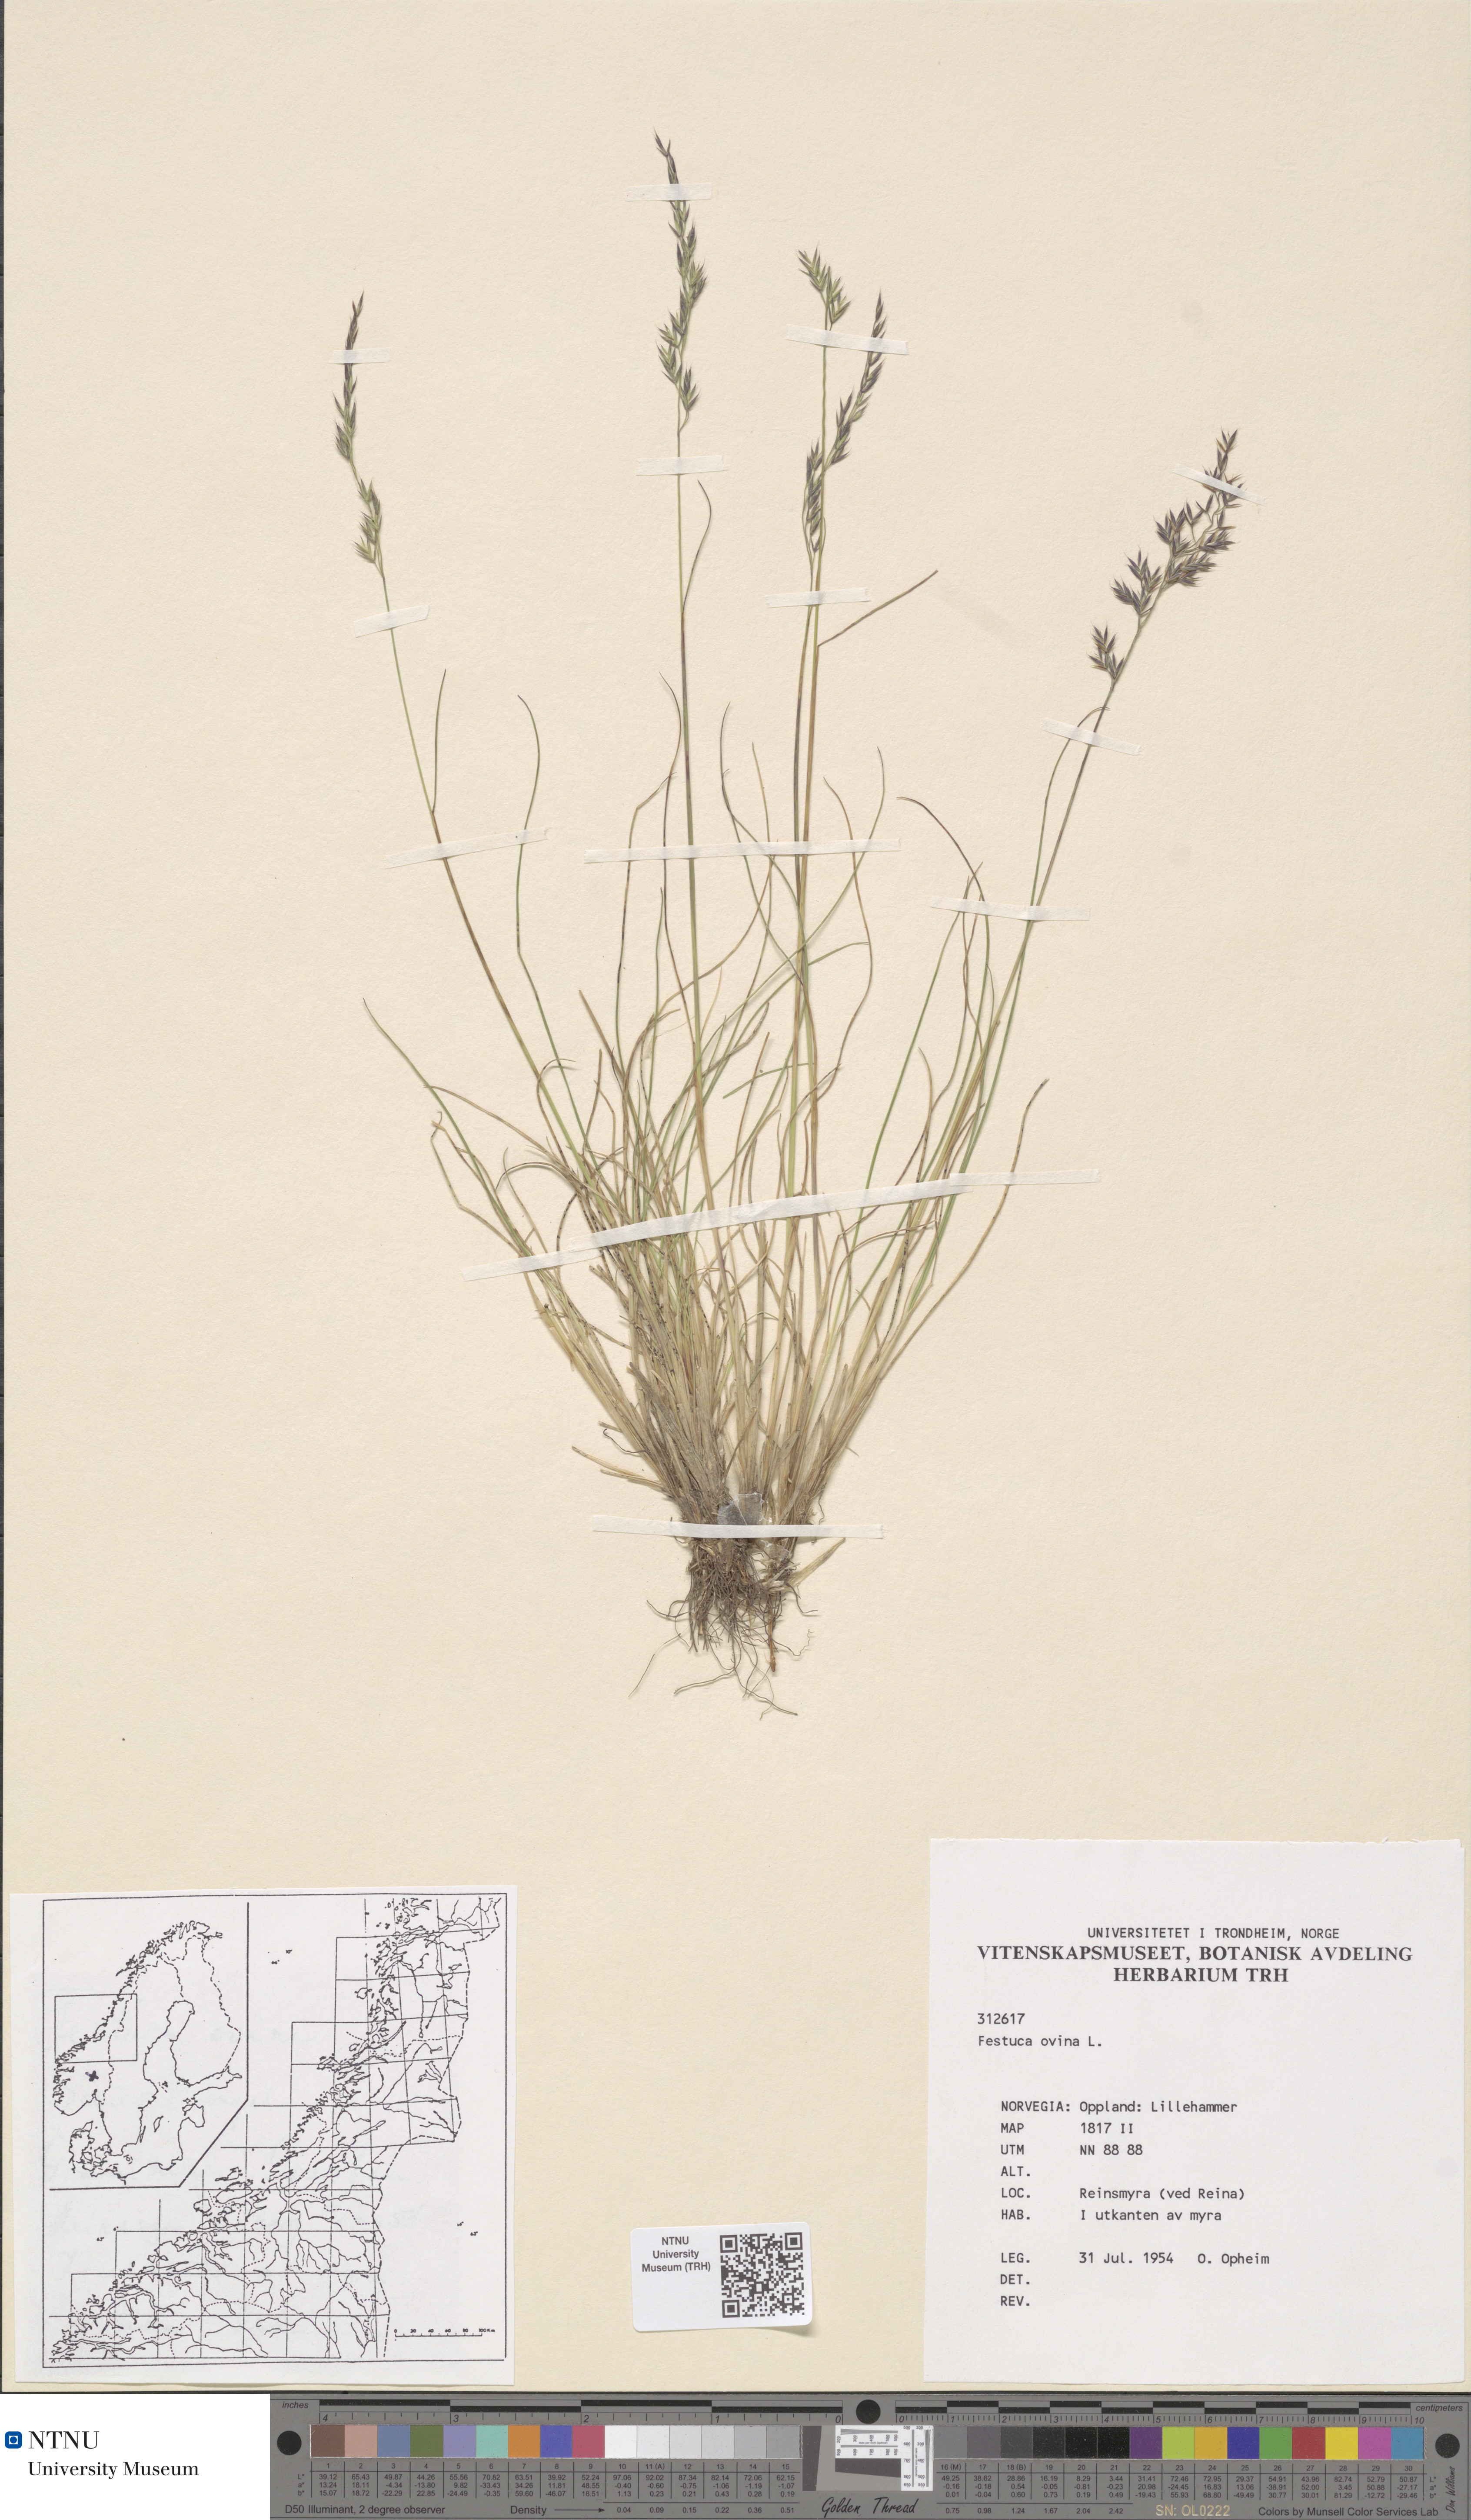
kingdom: Plantae
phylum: Tracheophyta
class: Liliopsida
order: Poales
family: Poaceae
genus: Festuca
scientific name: Festuca ovina
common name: Sheep fescue
